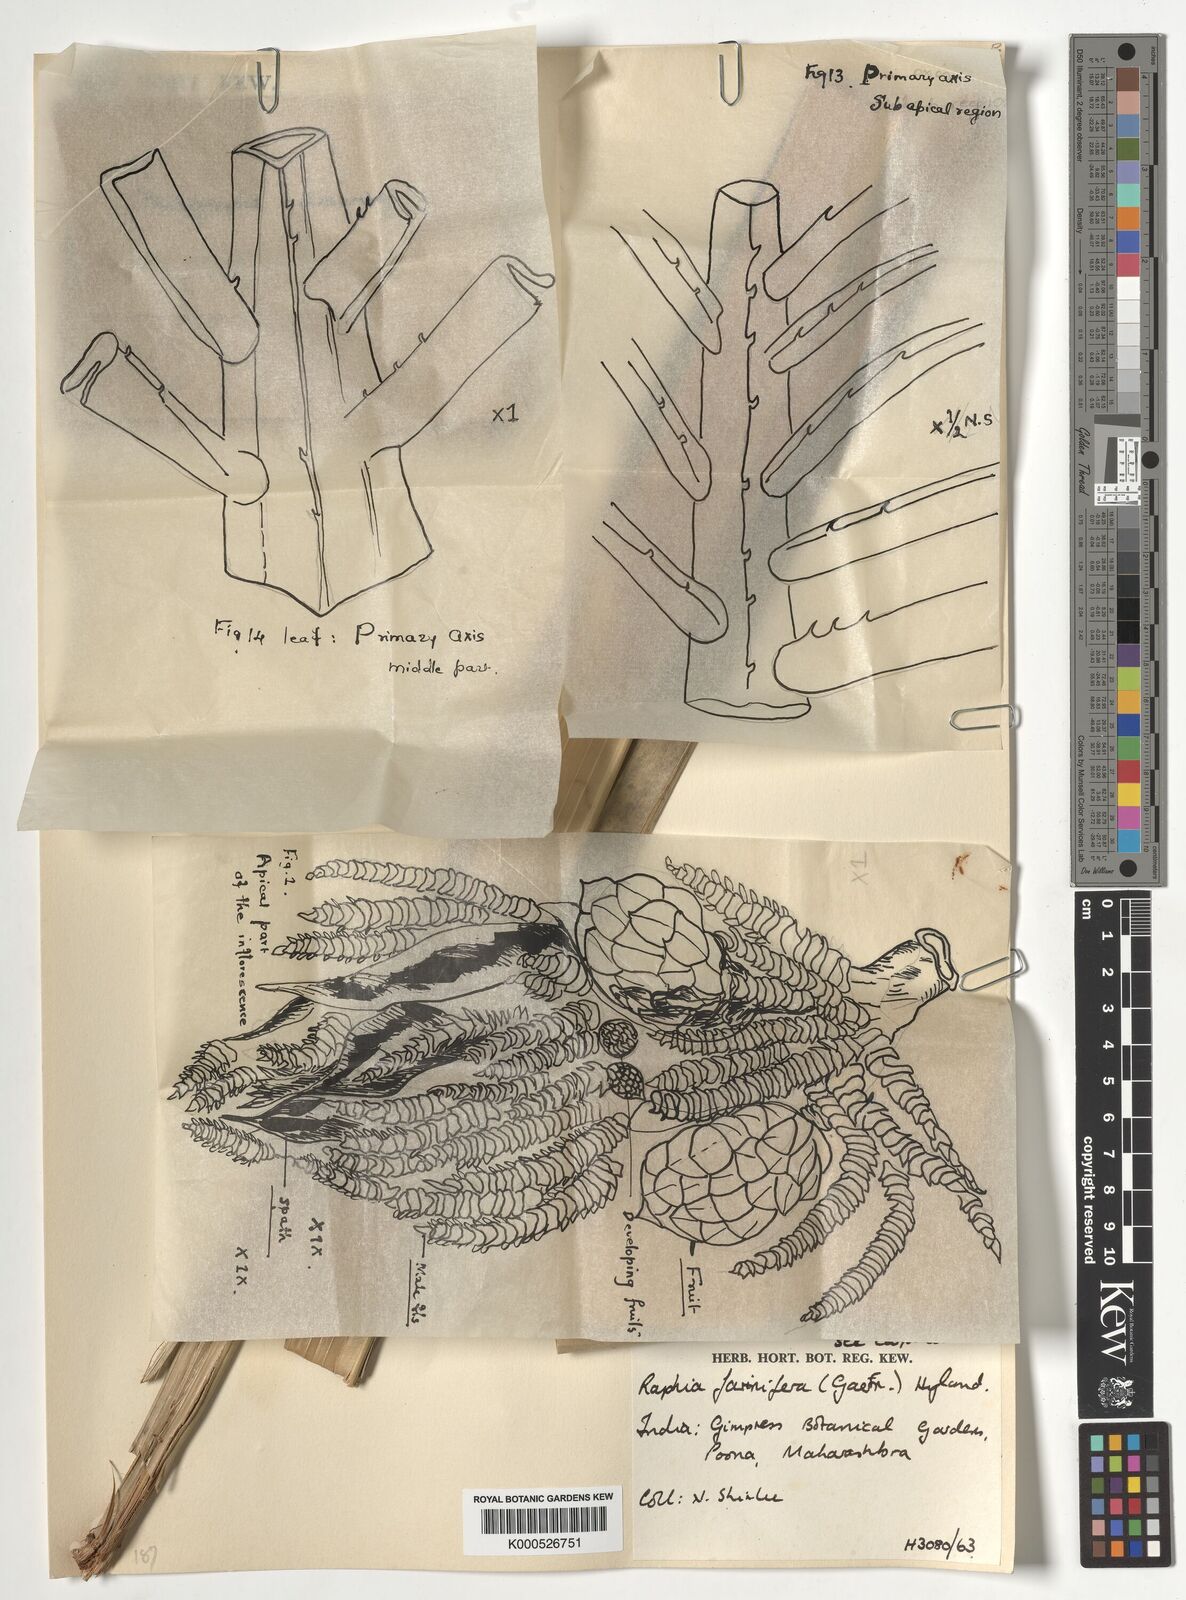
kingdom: Plantae
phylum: Tracheophyta
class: Liliopsida
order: Arecales
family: Arecaceae
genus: Raphia
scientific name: Raphia farinifera
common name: Raphia palm
